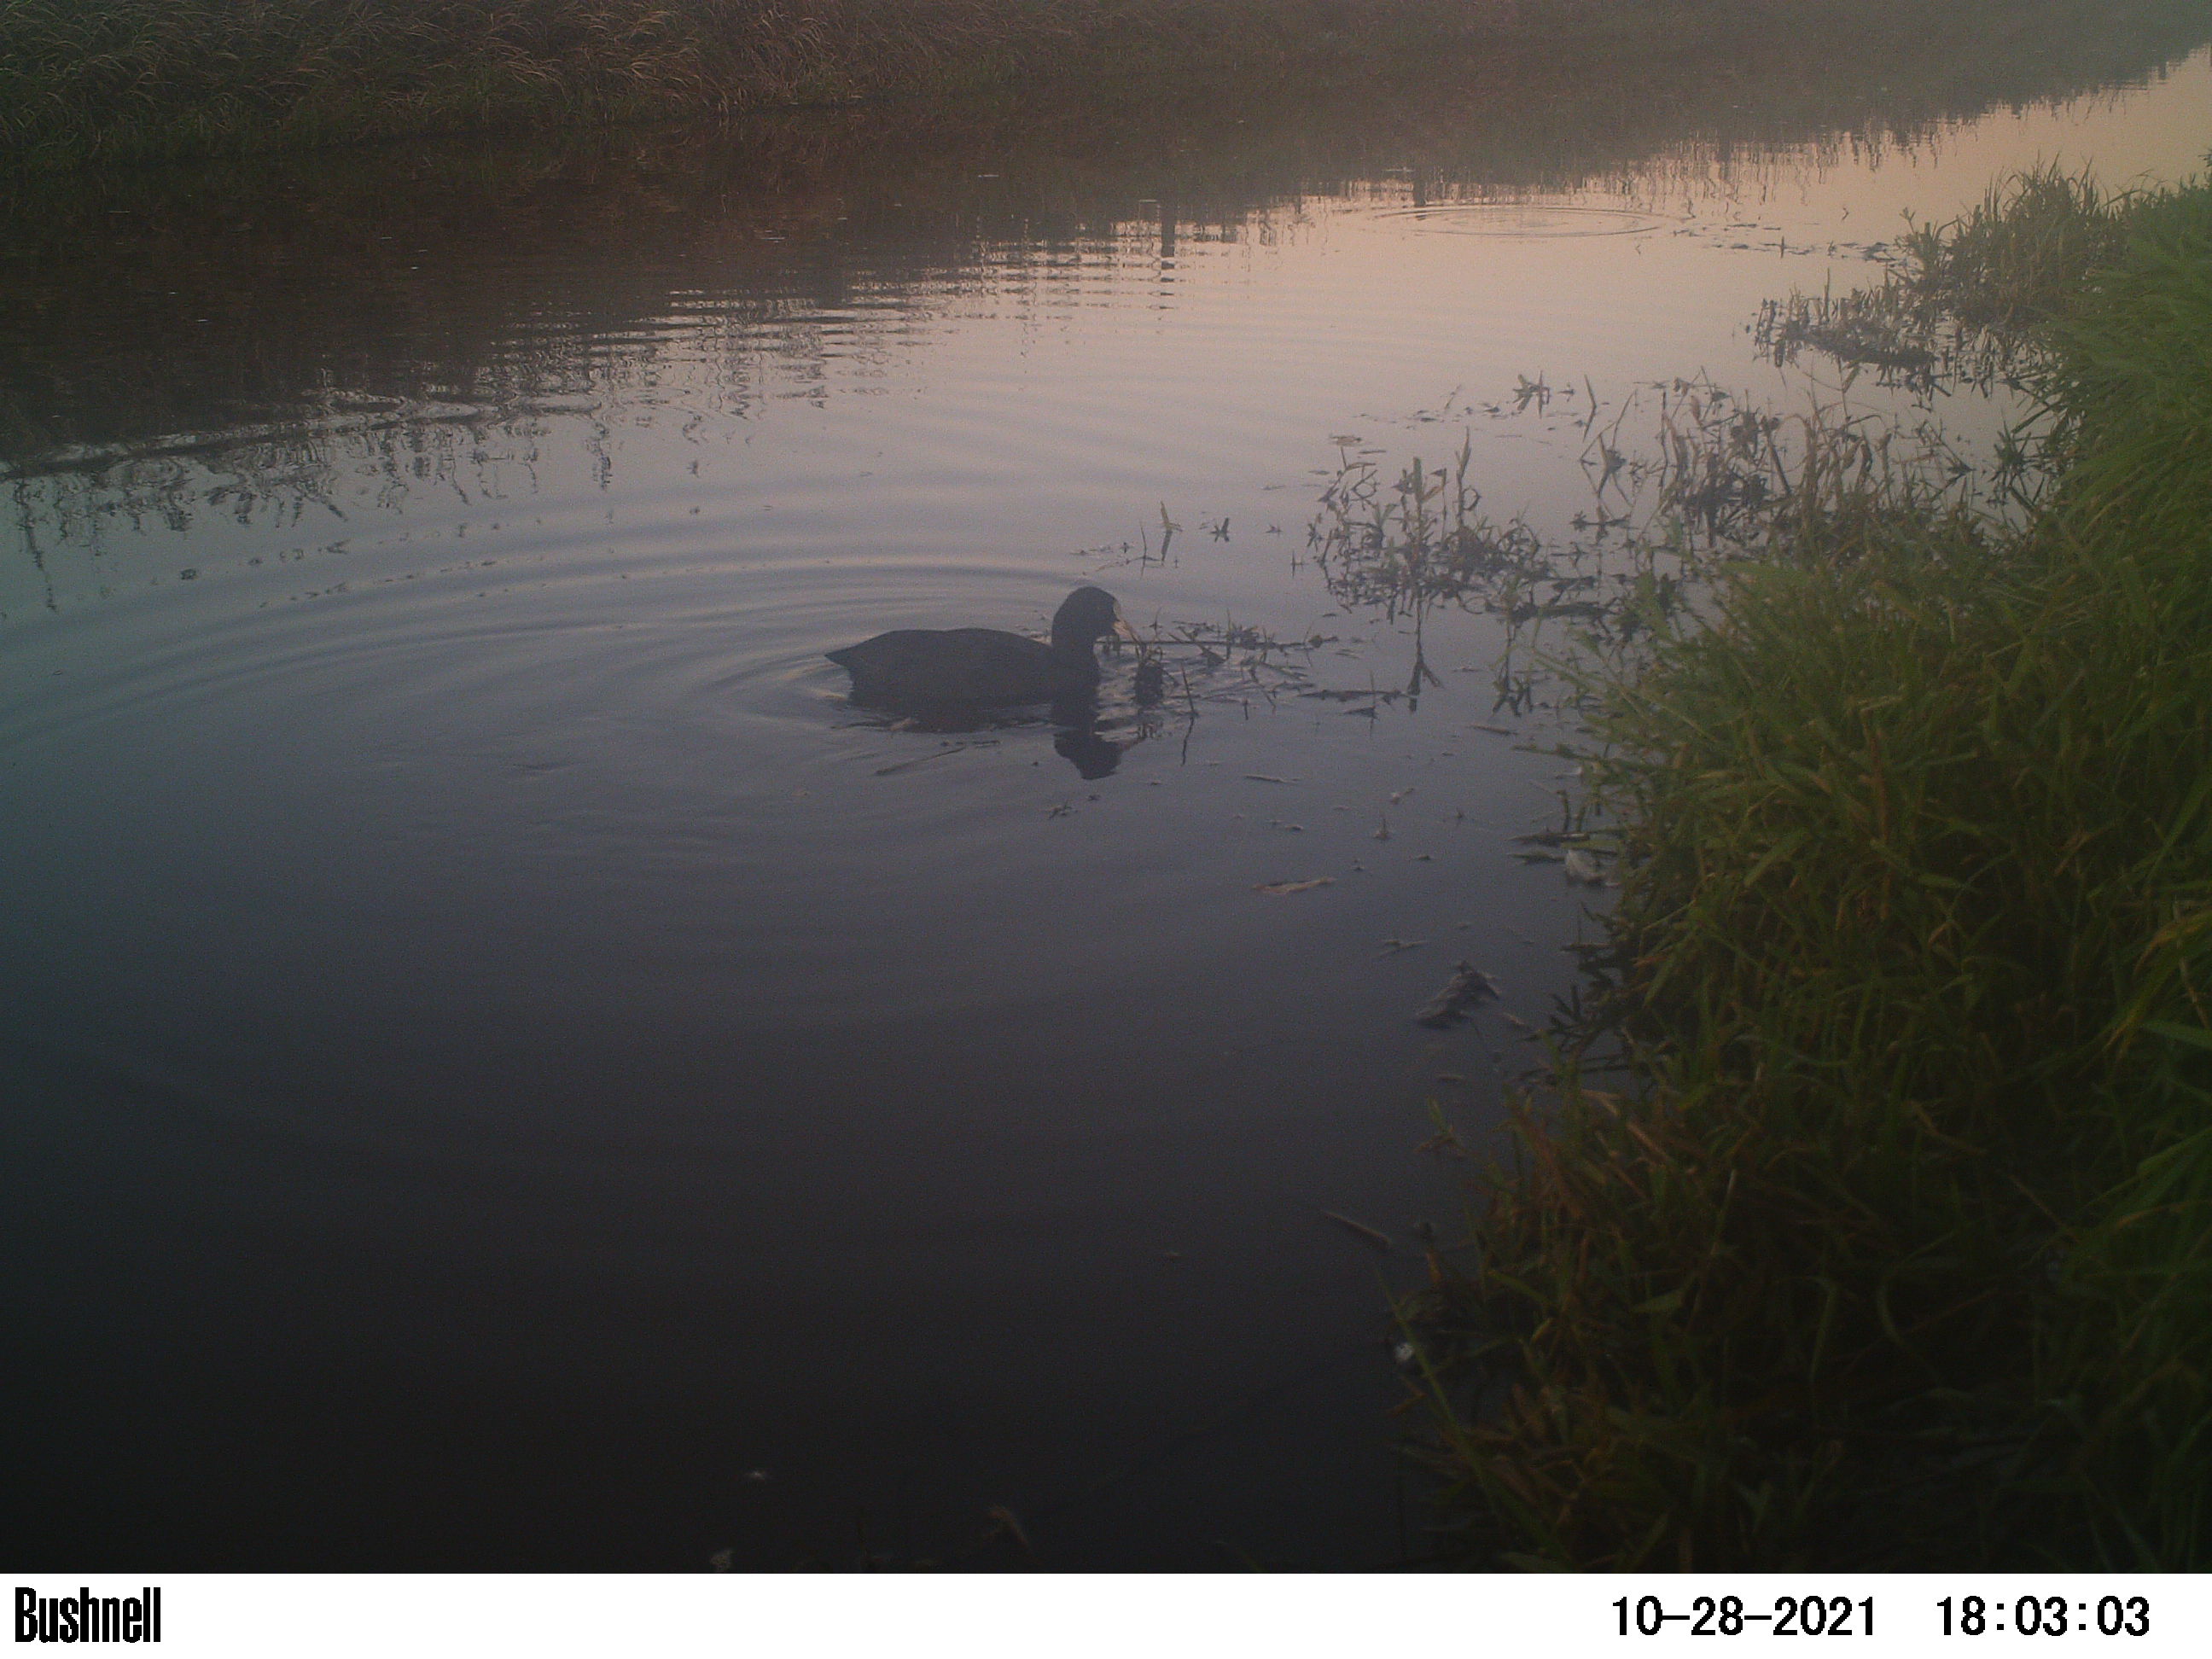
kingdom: Animalia
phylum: Chordata
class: Aves
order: Gruiformes
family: Rallidae
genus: Fulica
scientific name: Fulica atra
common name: Eurasian coot
